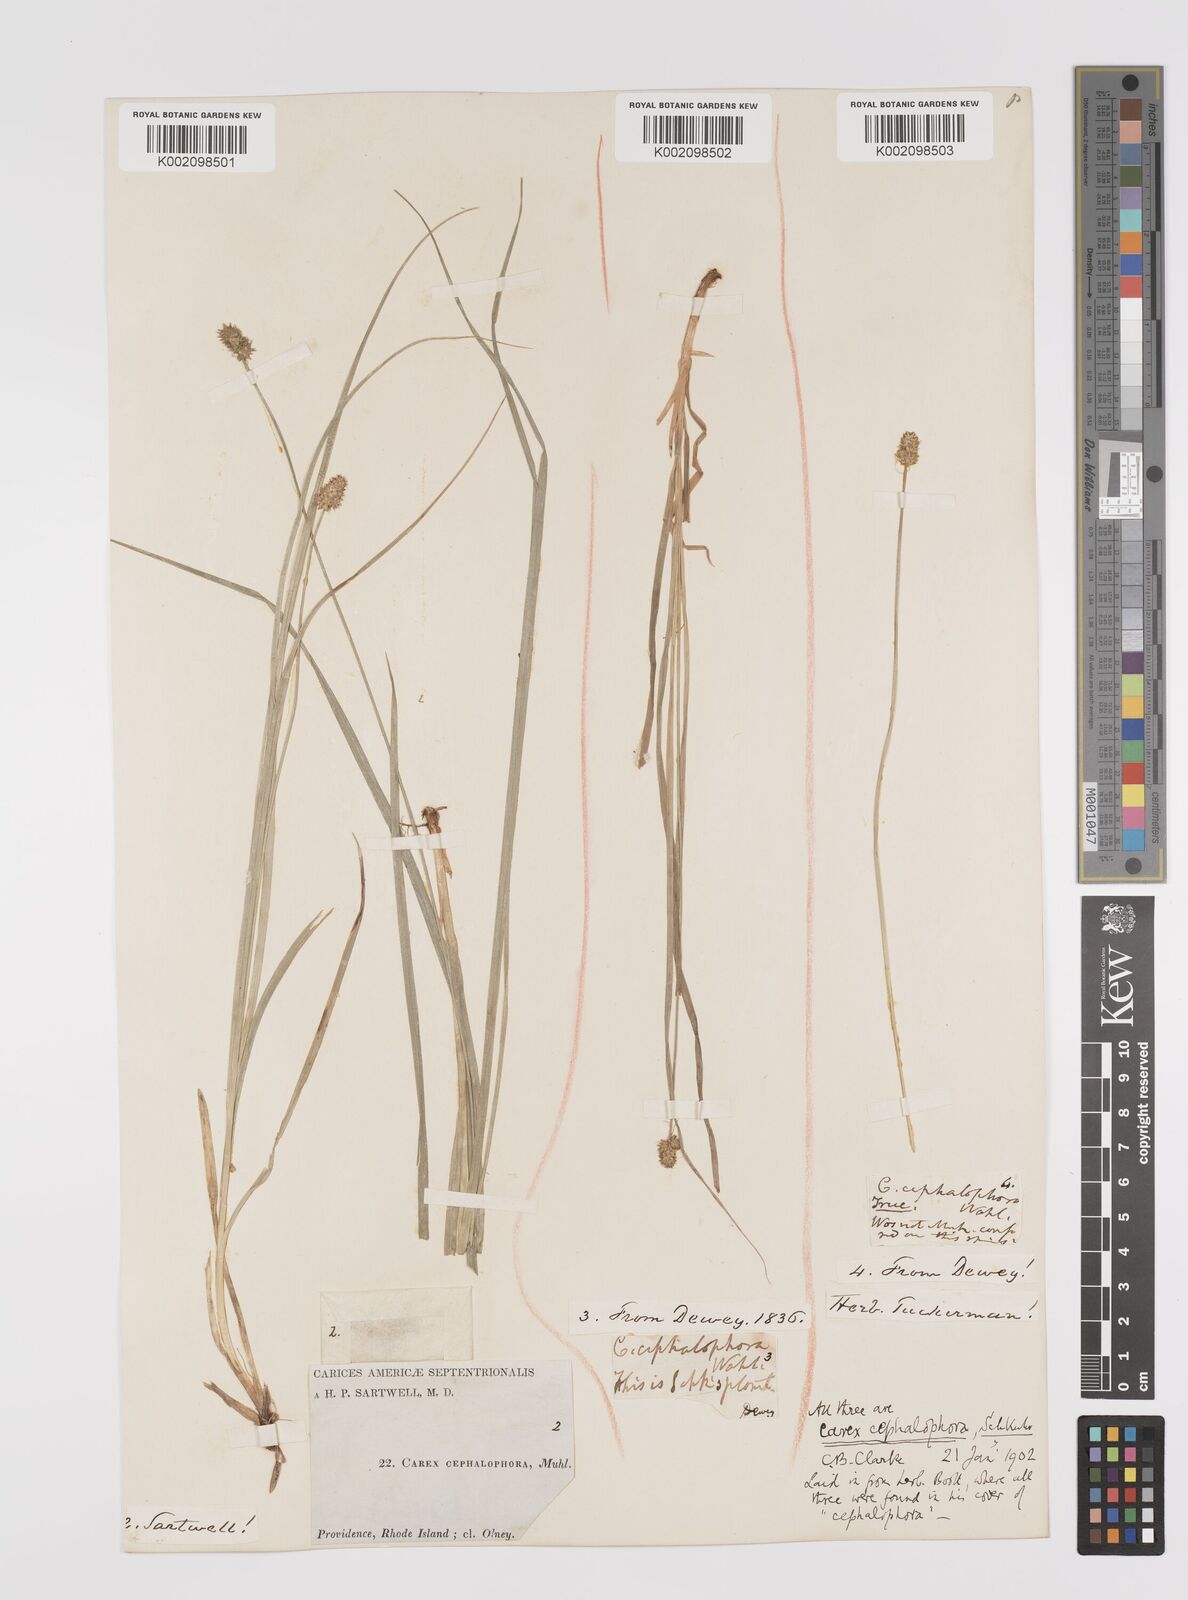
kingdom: Plantae
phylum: Tracheophyta
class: Liliopsida
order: Poales
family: Cyperaceae
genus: Carex
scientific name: Carex cephalophora
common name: Oval-headed sedge
